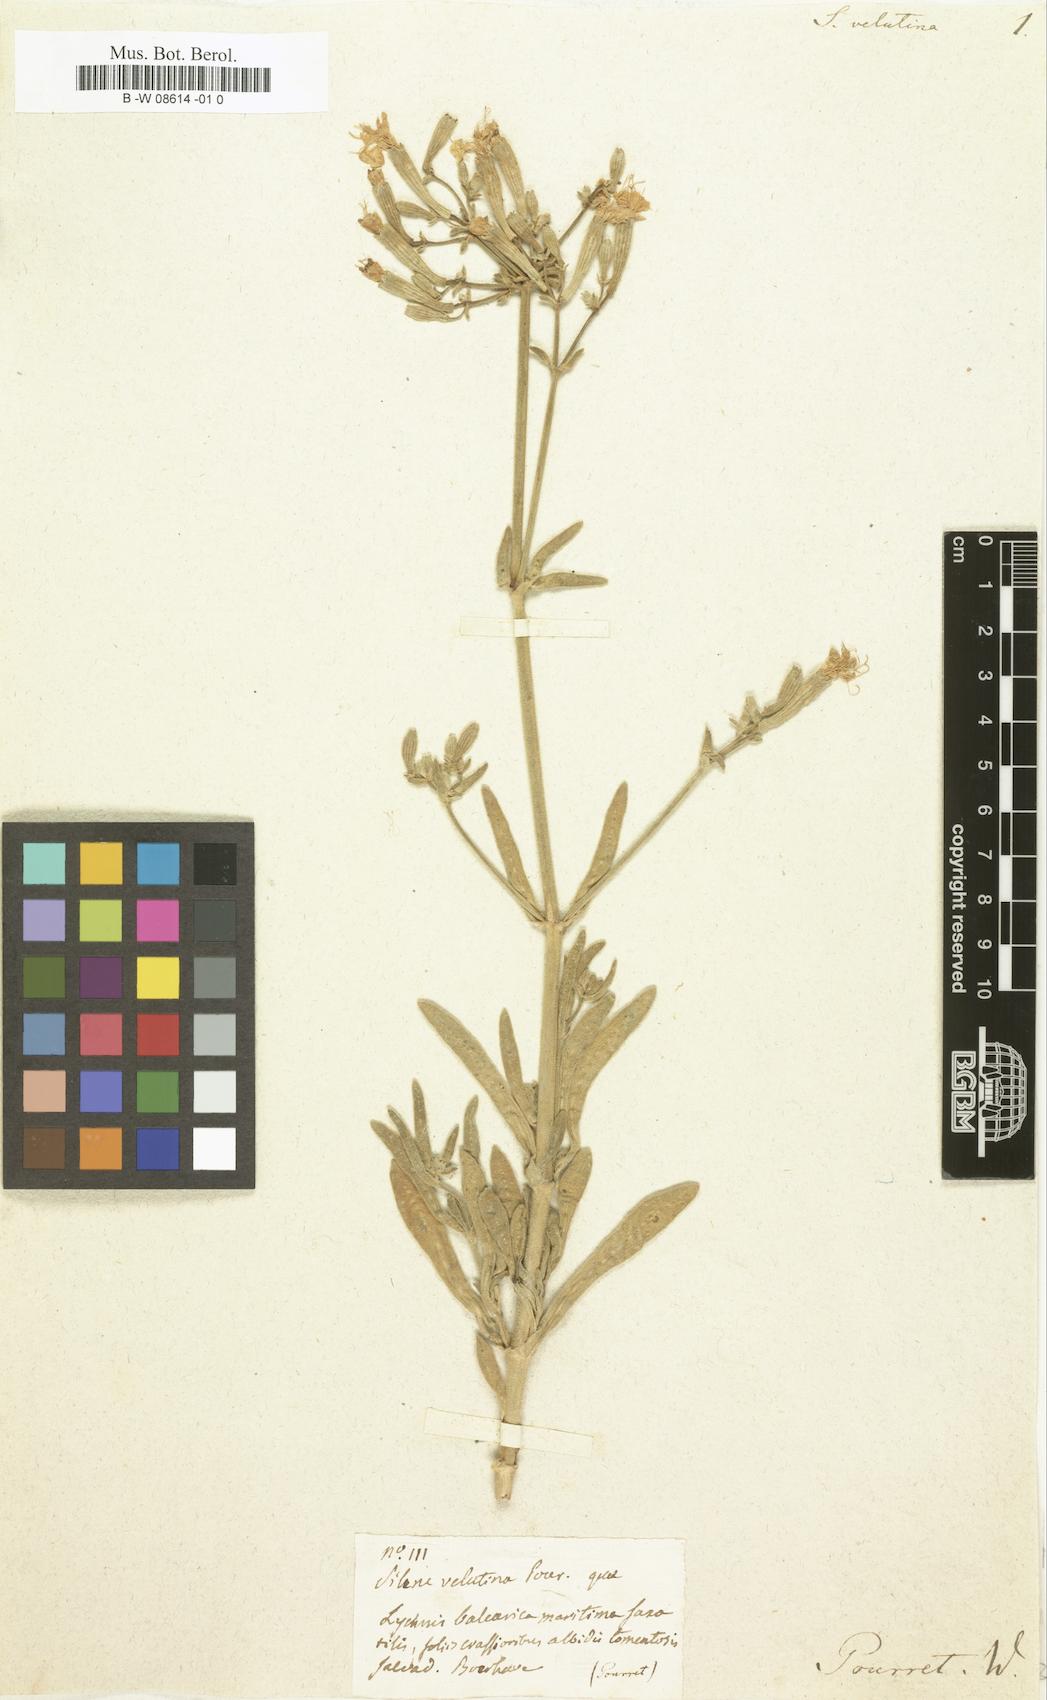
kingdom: Plantae
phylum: Tracheophyta
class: Magnoliopsida
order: Caryophyllales
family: Caryophyllaceae
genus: Silene
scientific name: Silene velutina
